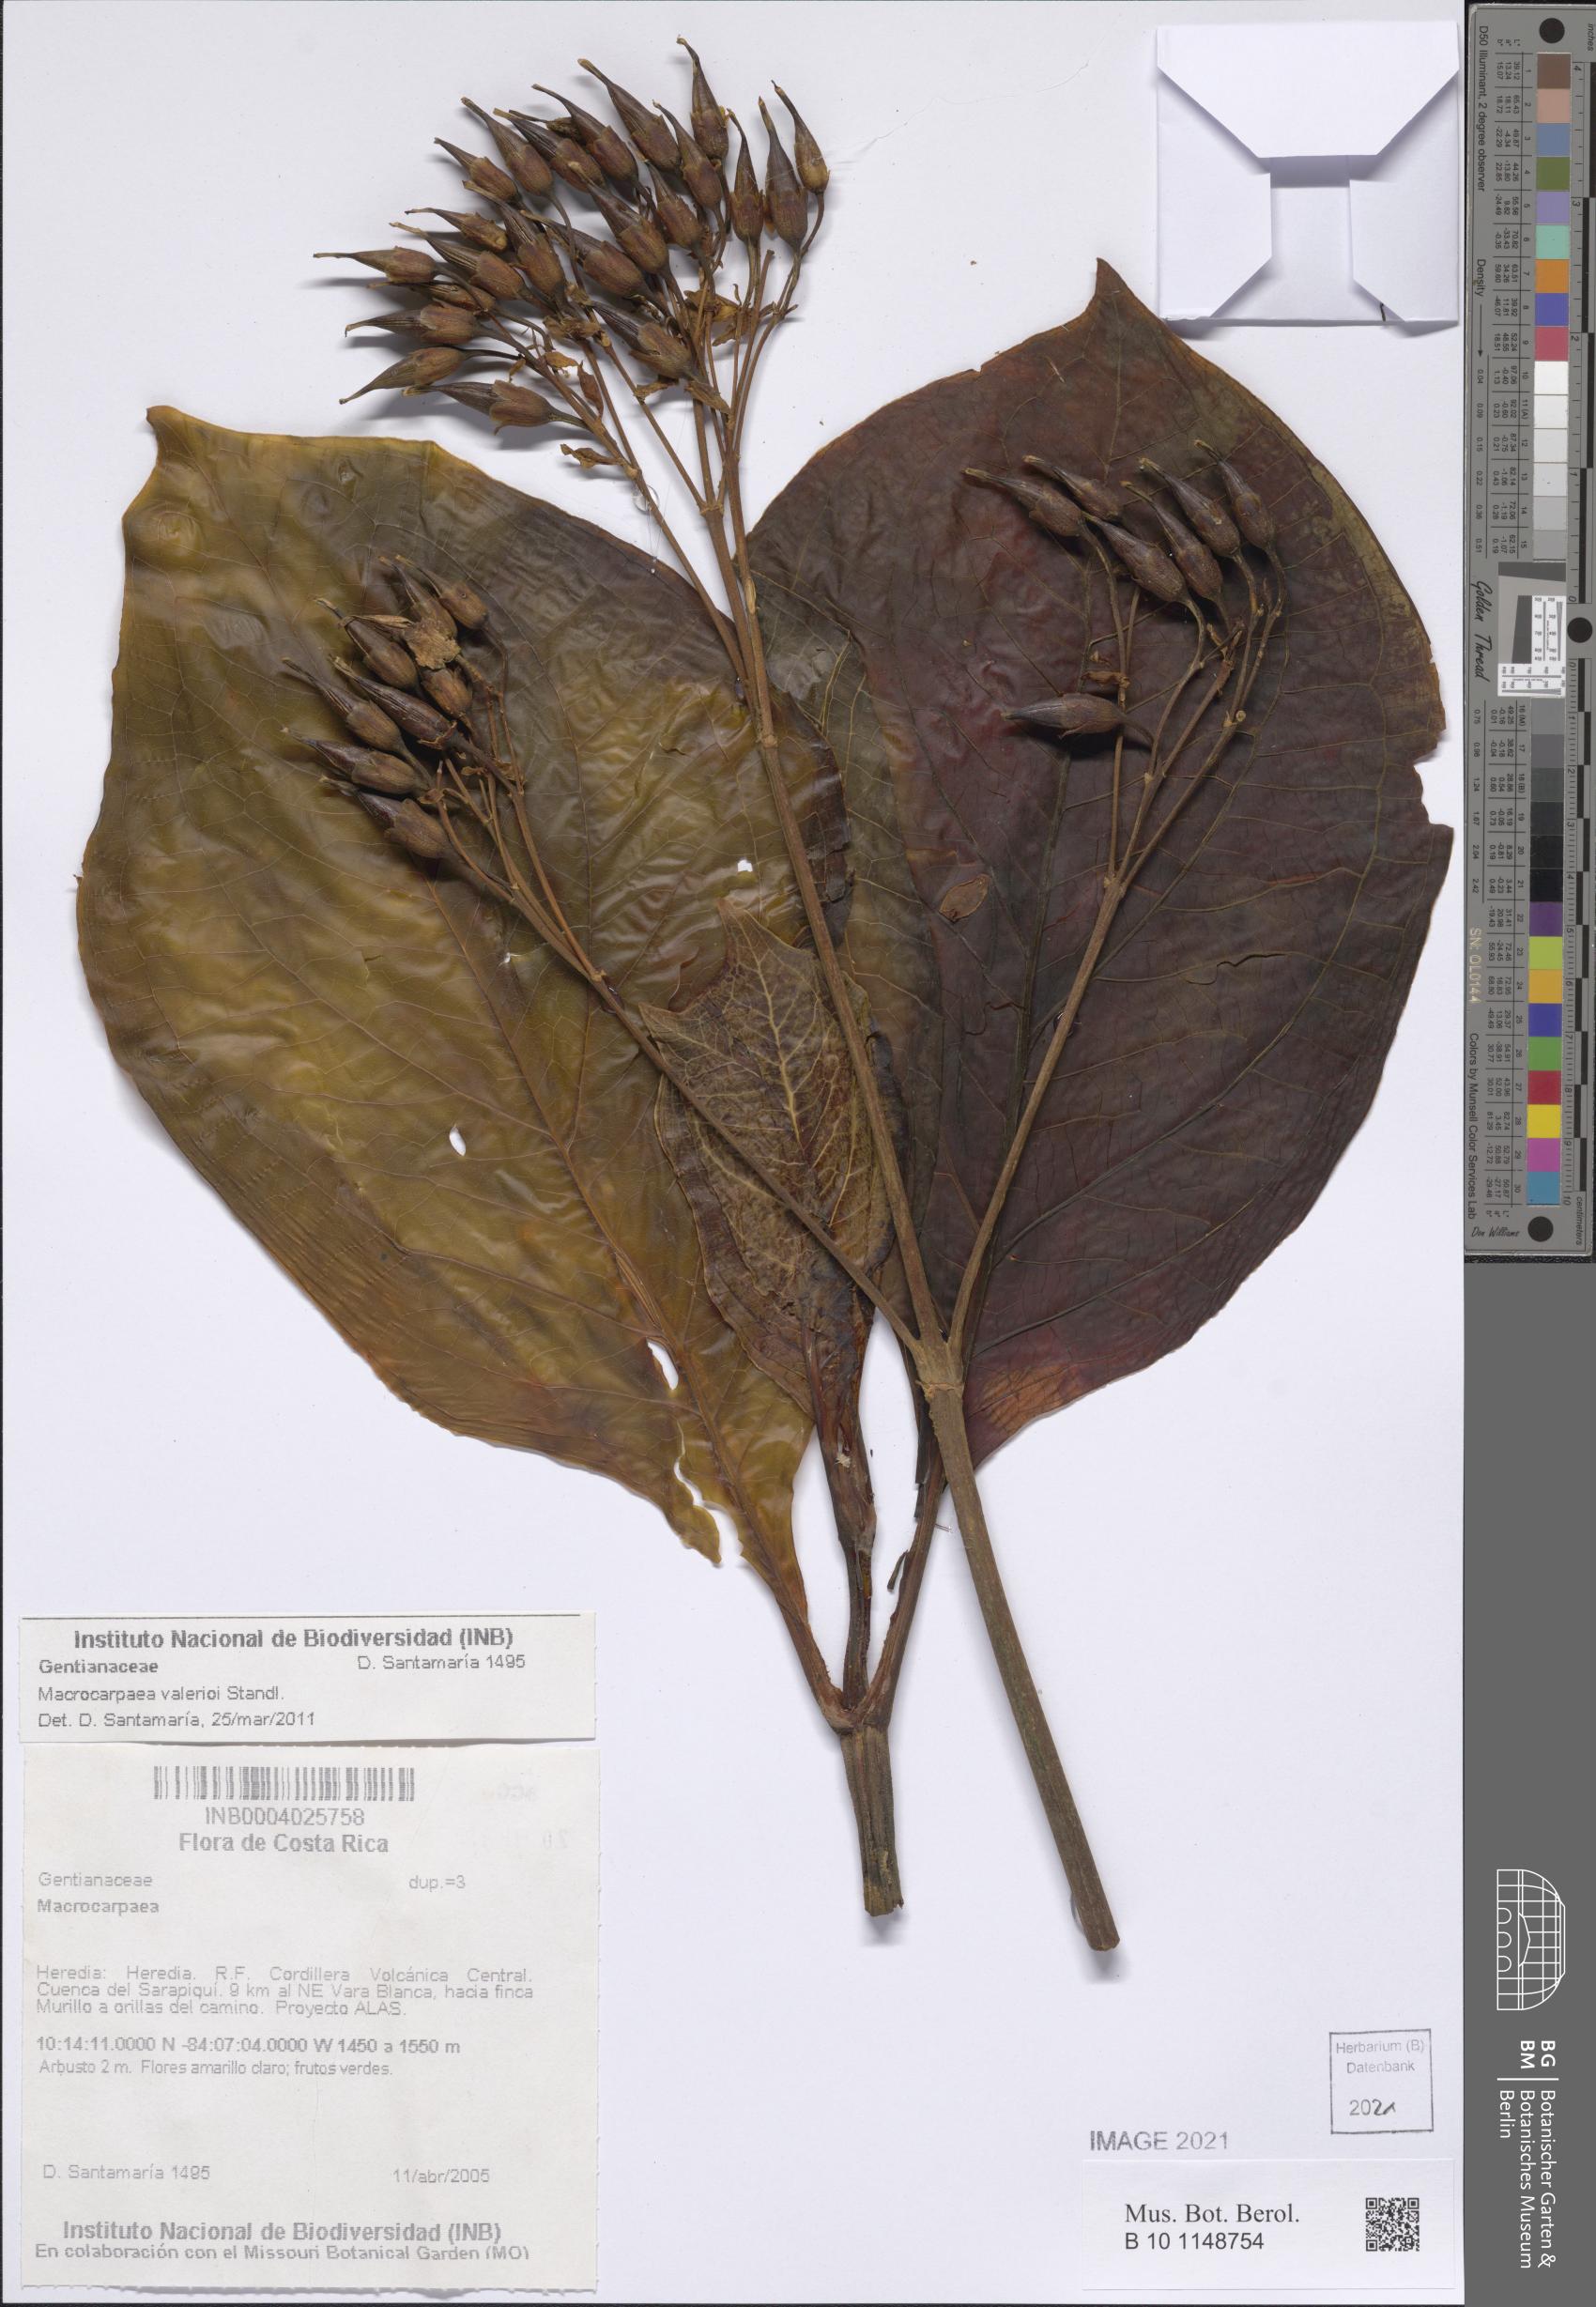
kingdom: Plantae
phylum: Tracheophyta
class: Magnoliopsida
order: Gentianales
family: Gentianaceae
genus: Macrocarpaea
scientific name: Macrocarpaea
